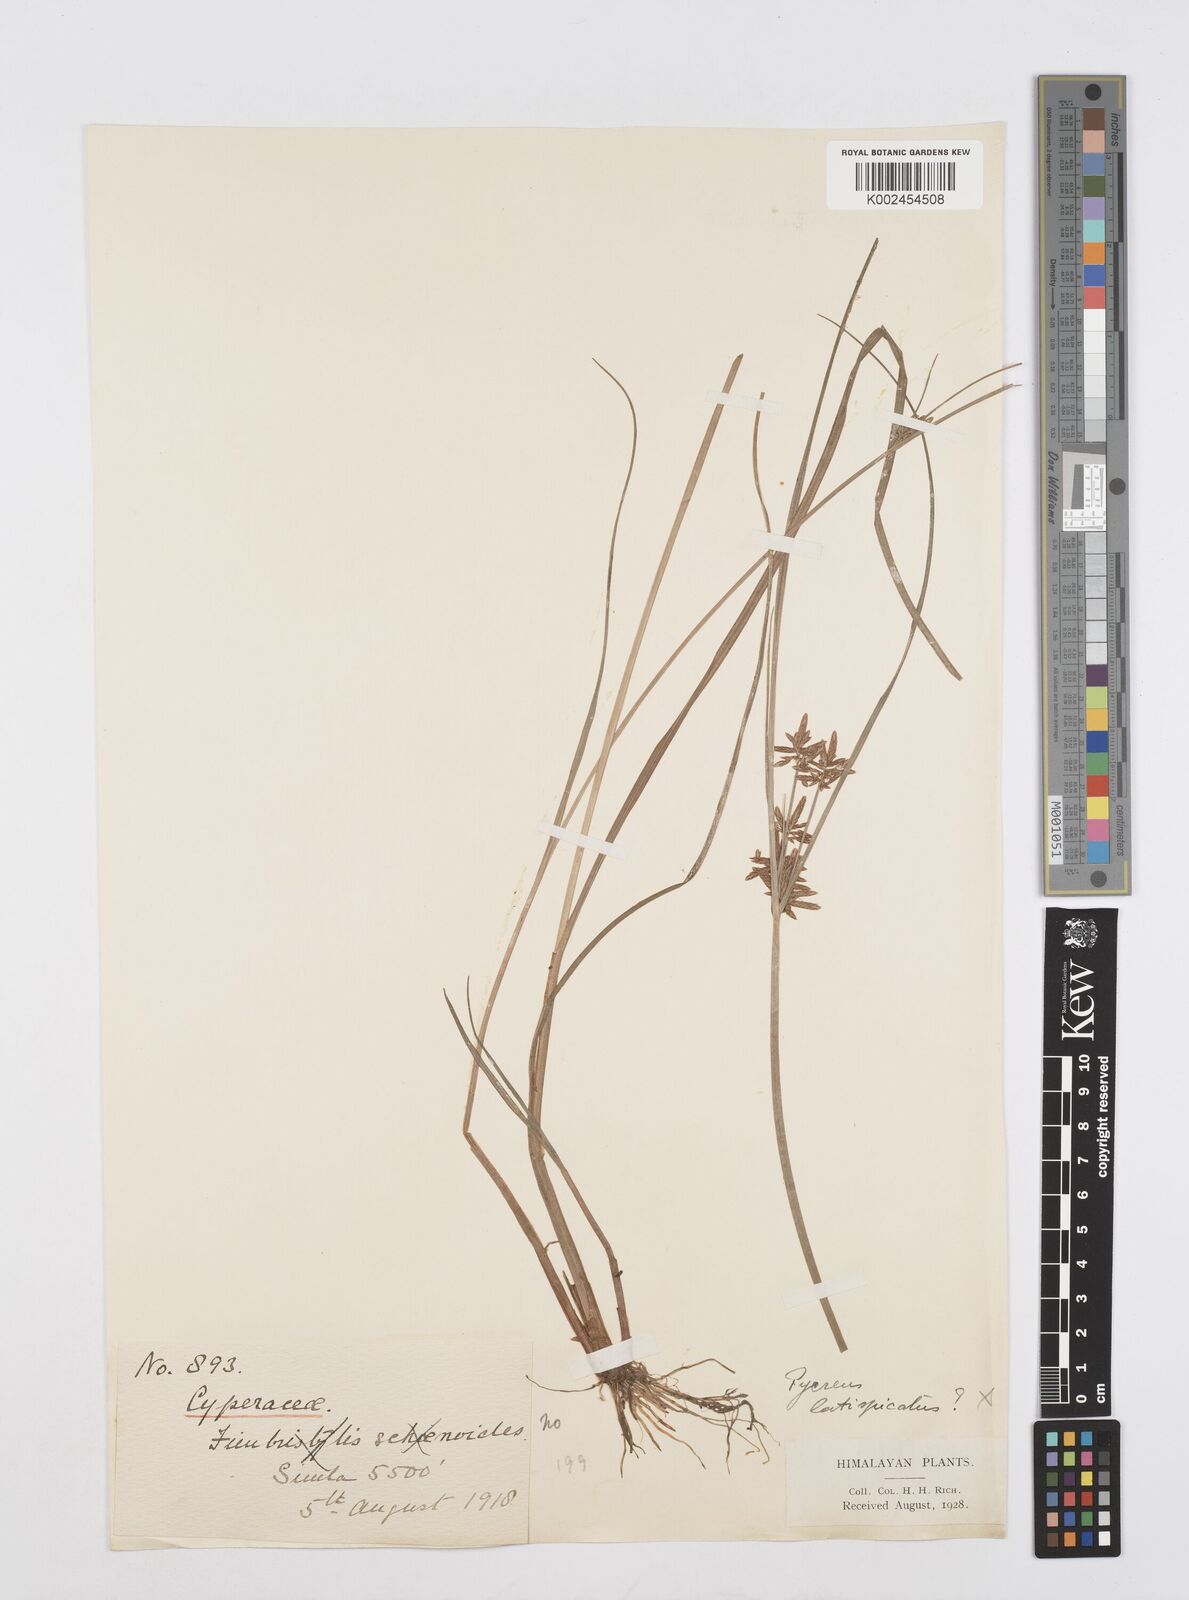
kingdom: Plantae
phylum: Tracheophyta
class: Liliopsida
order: Poales
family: Cyperaceae
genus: Cyperus
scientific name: Cyperus
